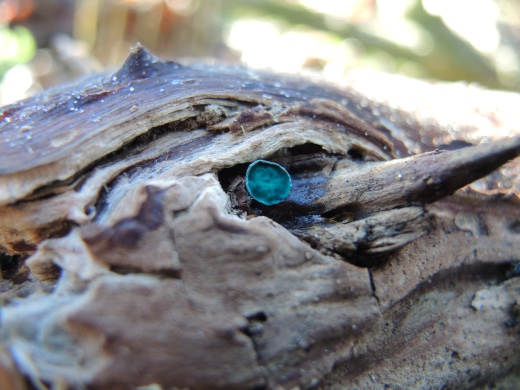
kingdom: Fungi
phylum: Ascomycota
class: Leotiomycetes
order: Helotiales
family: Chlorociboriaceae
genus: Chlorociboria
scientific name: Chlorociboria aeruginascens
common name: almindelig grønskive
